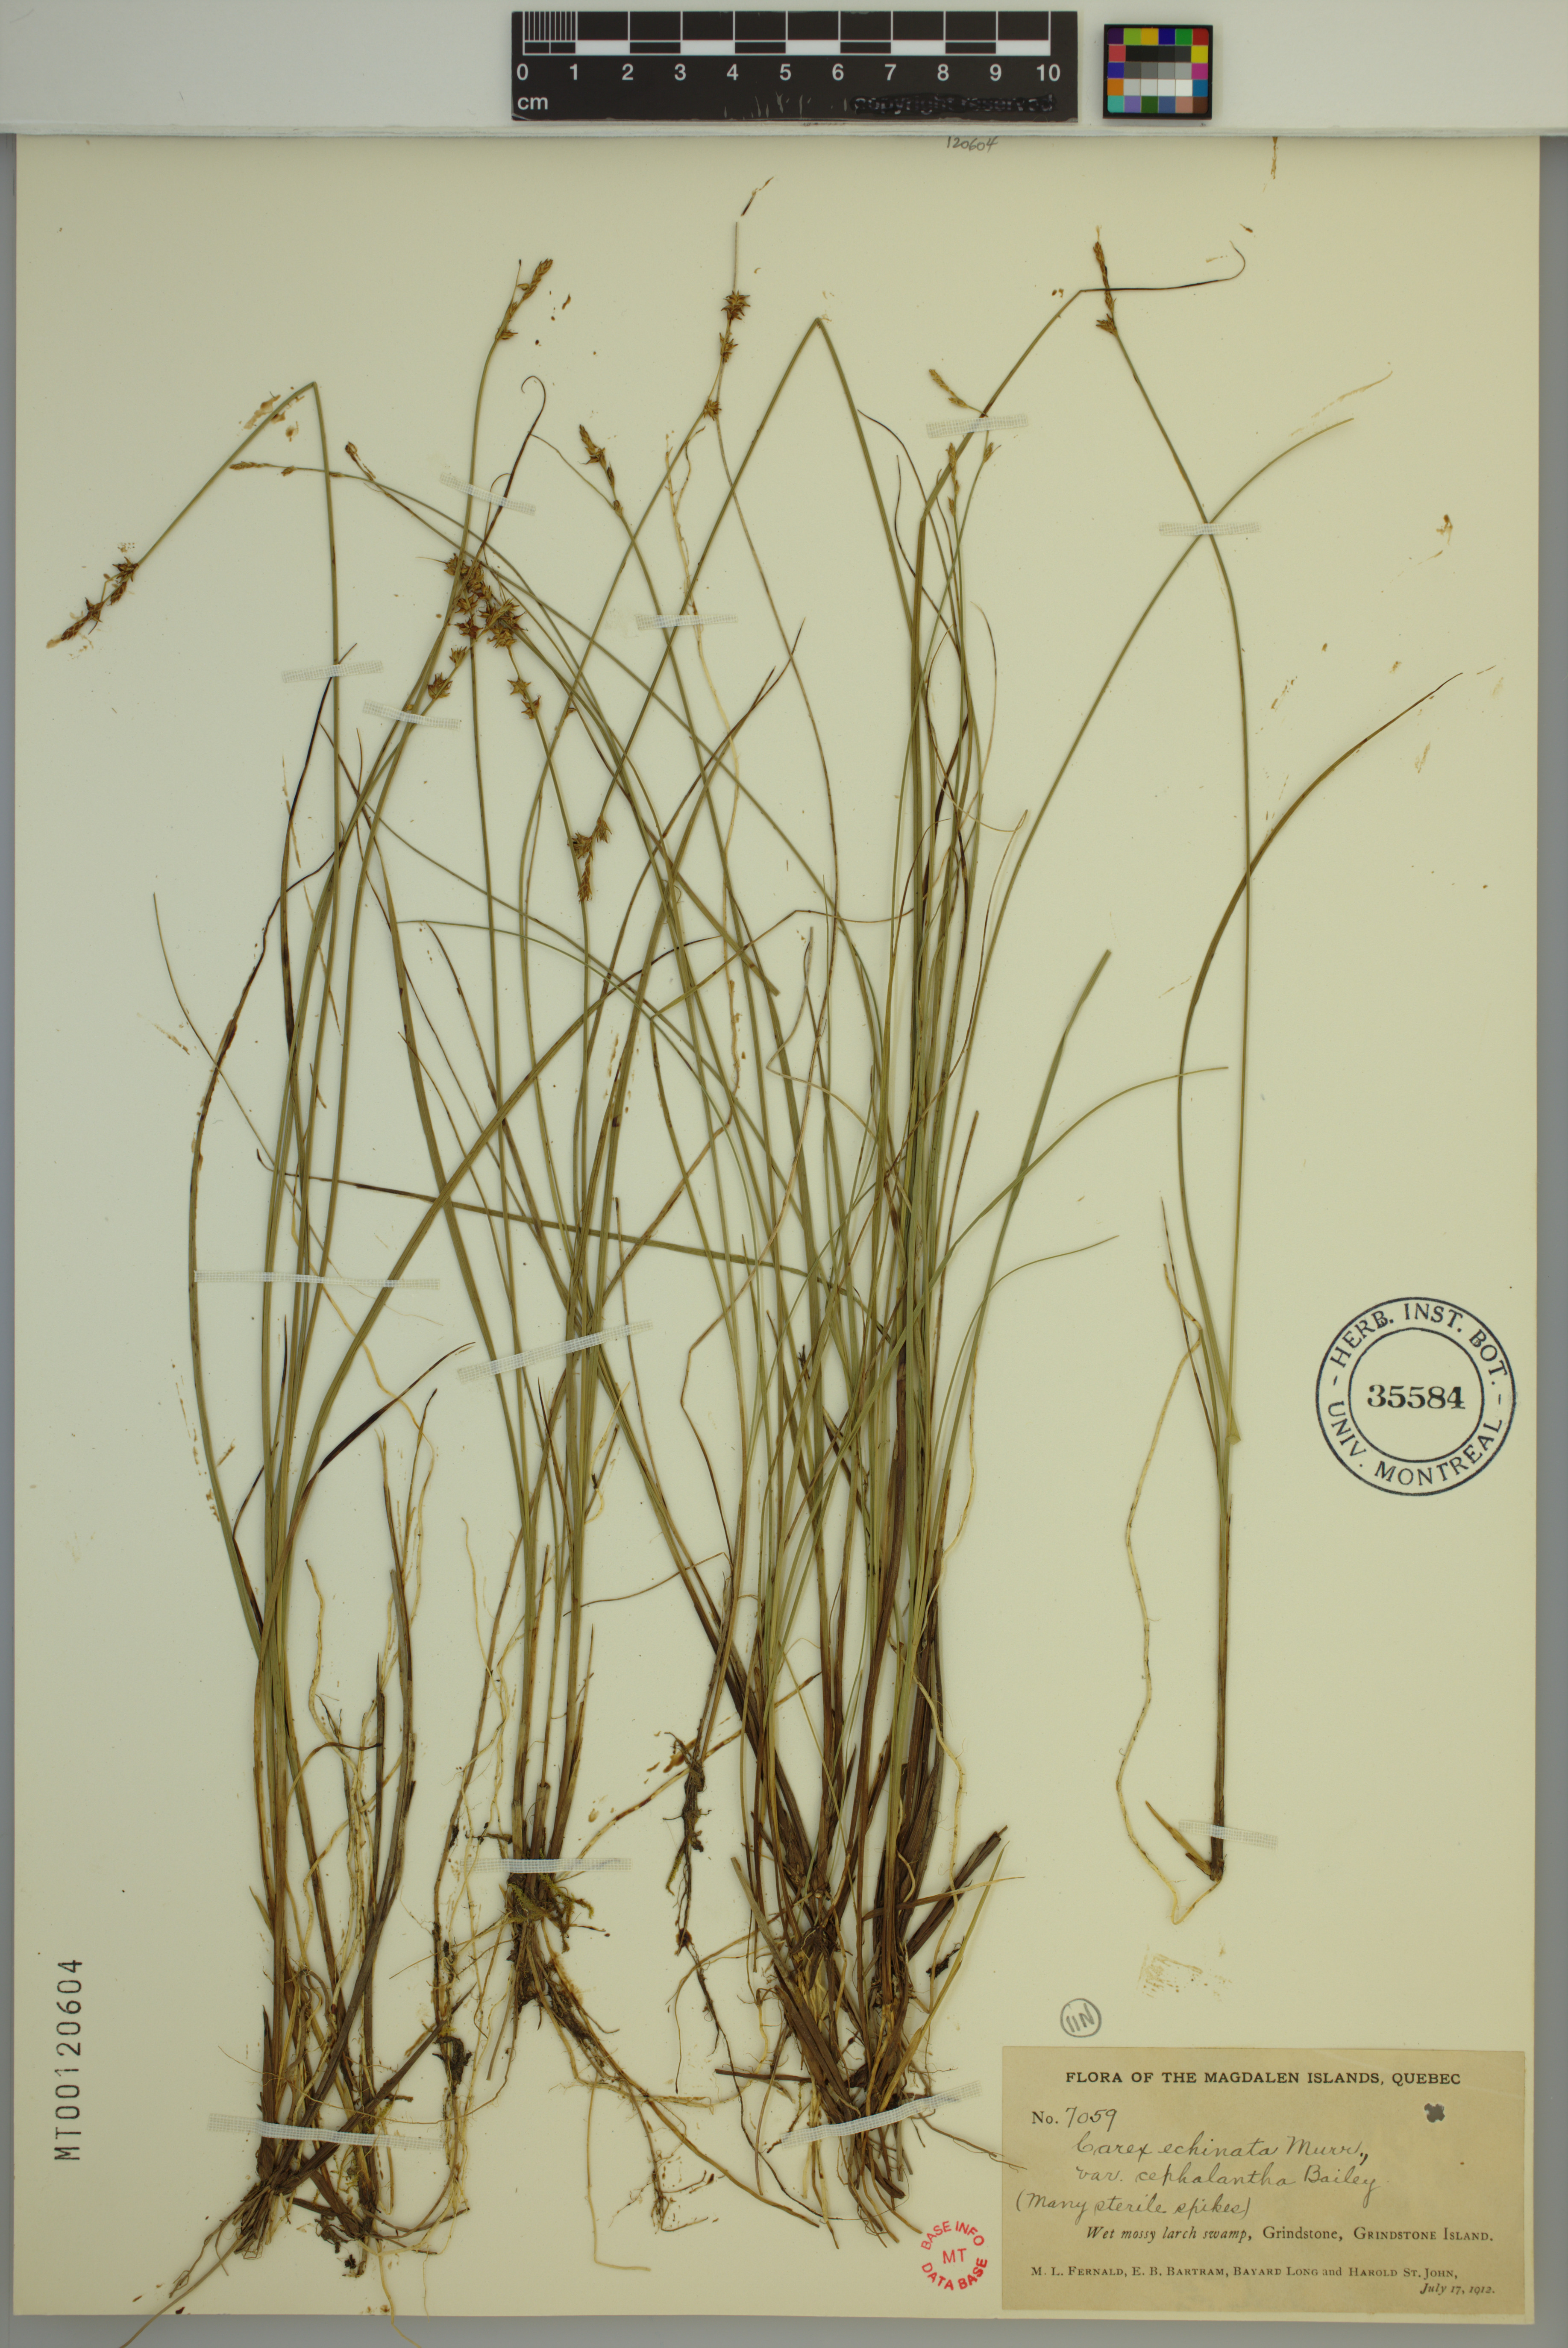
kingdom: Plantae
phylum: Tracheophyta
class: Liliopsida
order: Poales
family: Cyperaceae
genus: Carex
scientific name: Carex echinata
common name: Star sedge
